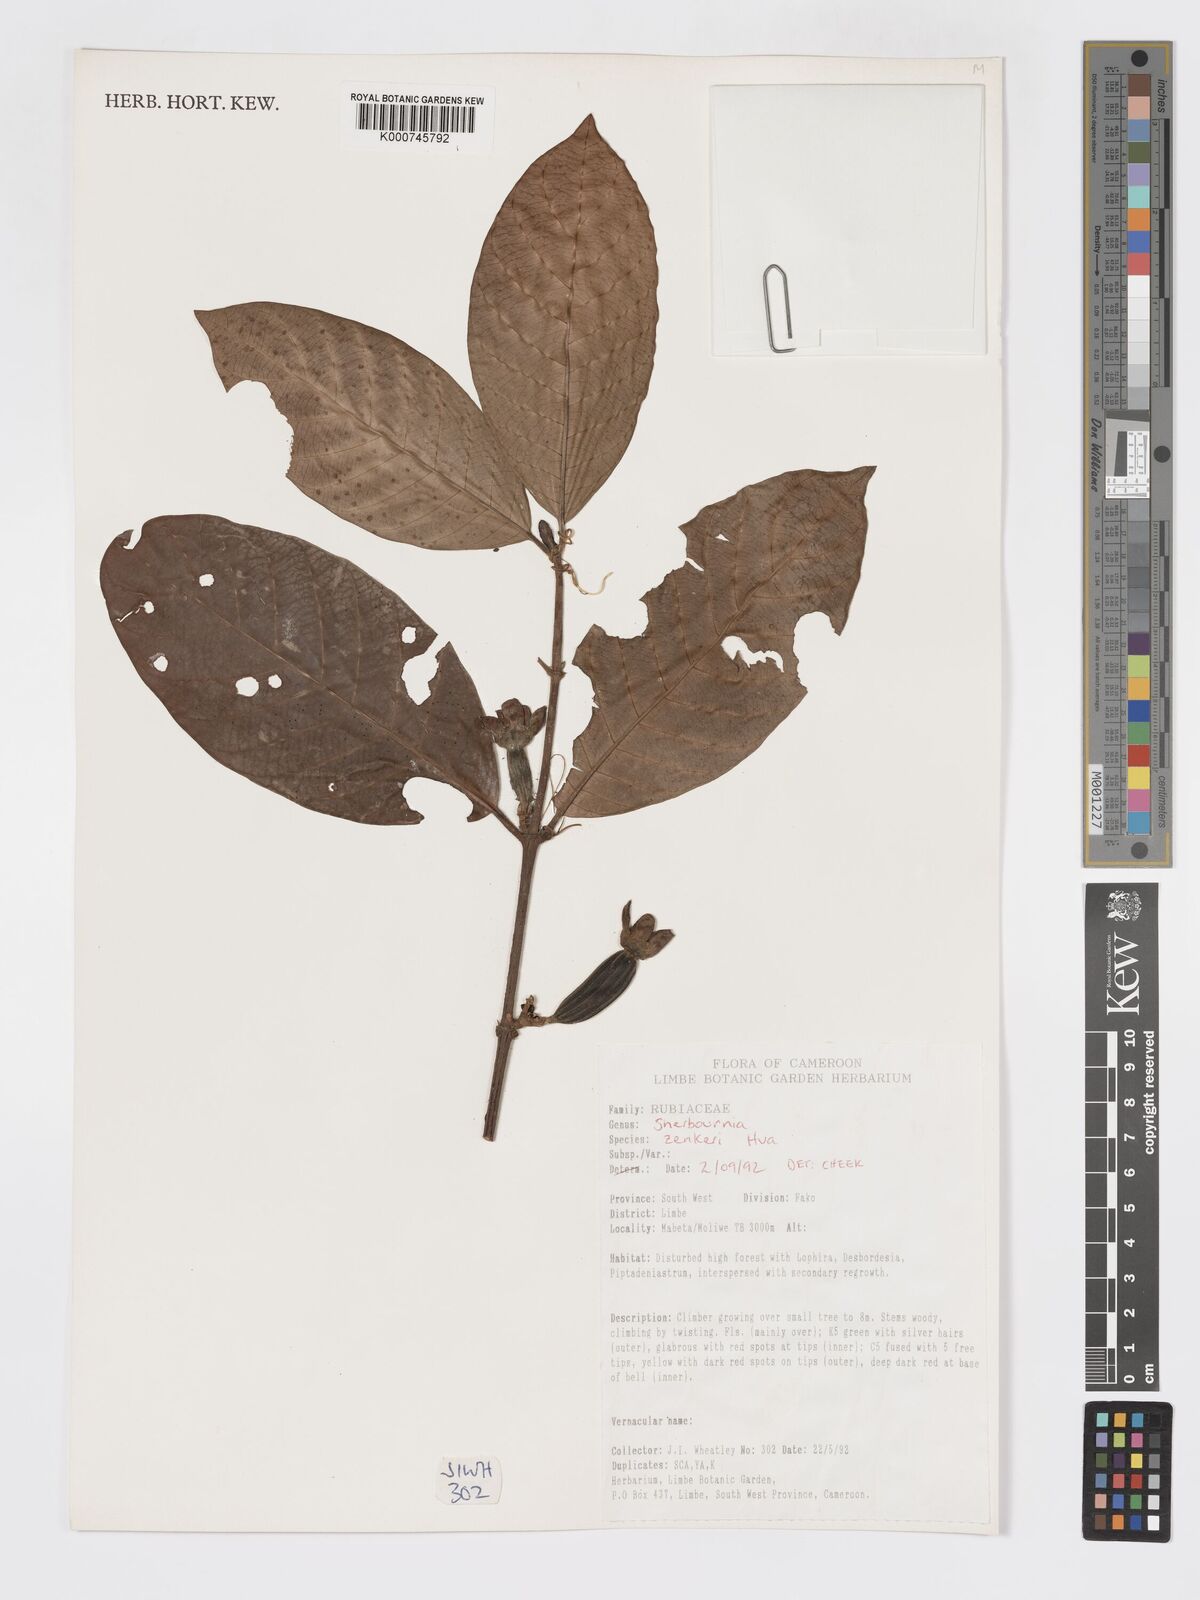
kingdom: Plantae
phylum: Tracheophyta
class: Magnoliopsida
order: Gentianales
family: Rubiaceae
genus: Sherbournia
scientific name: Sherbournia zenkeri
